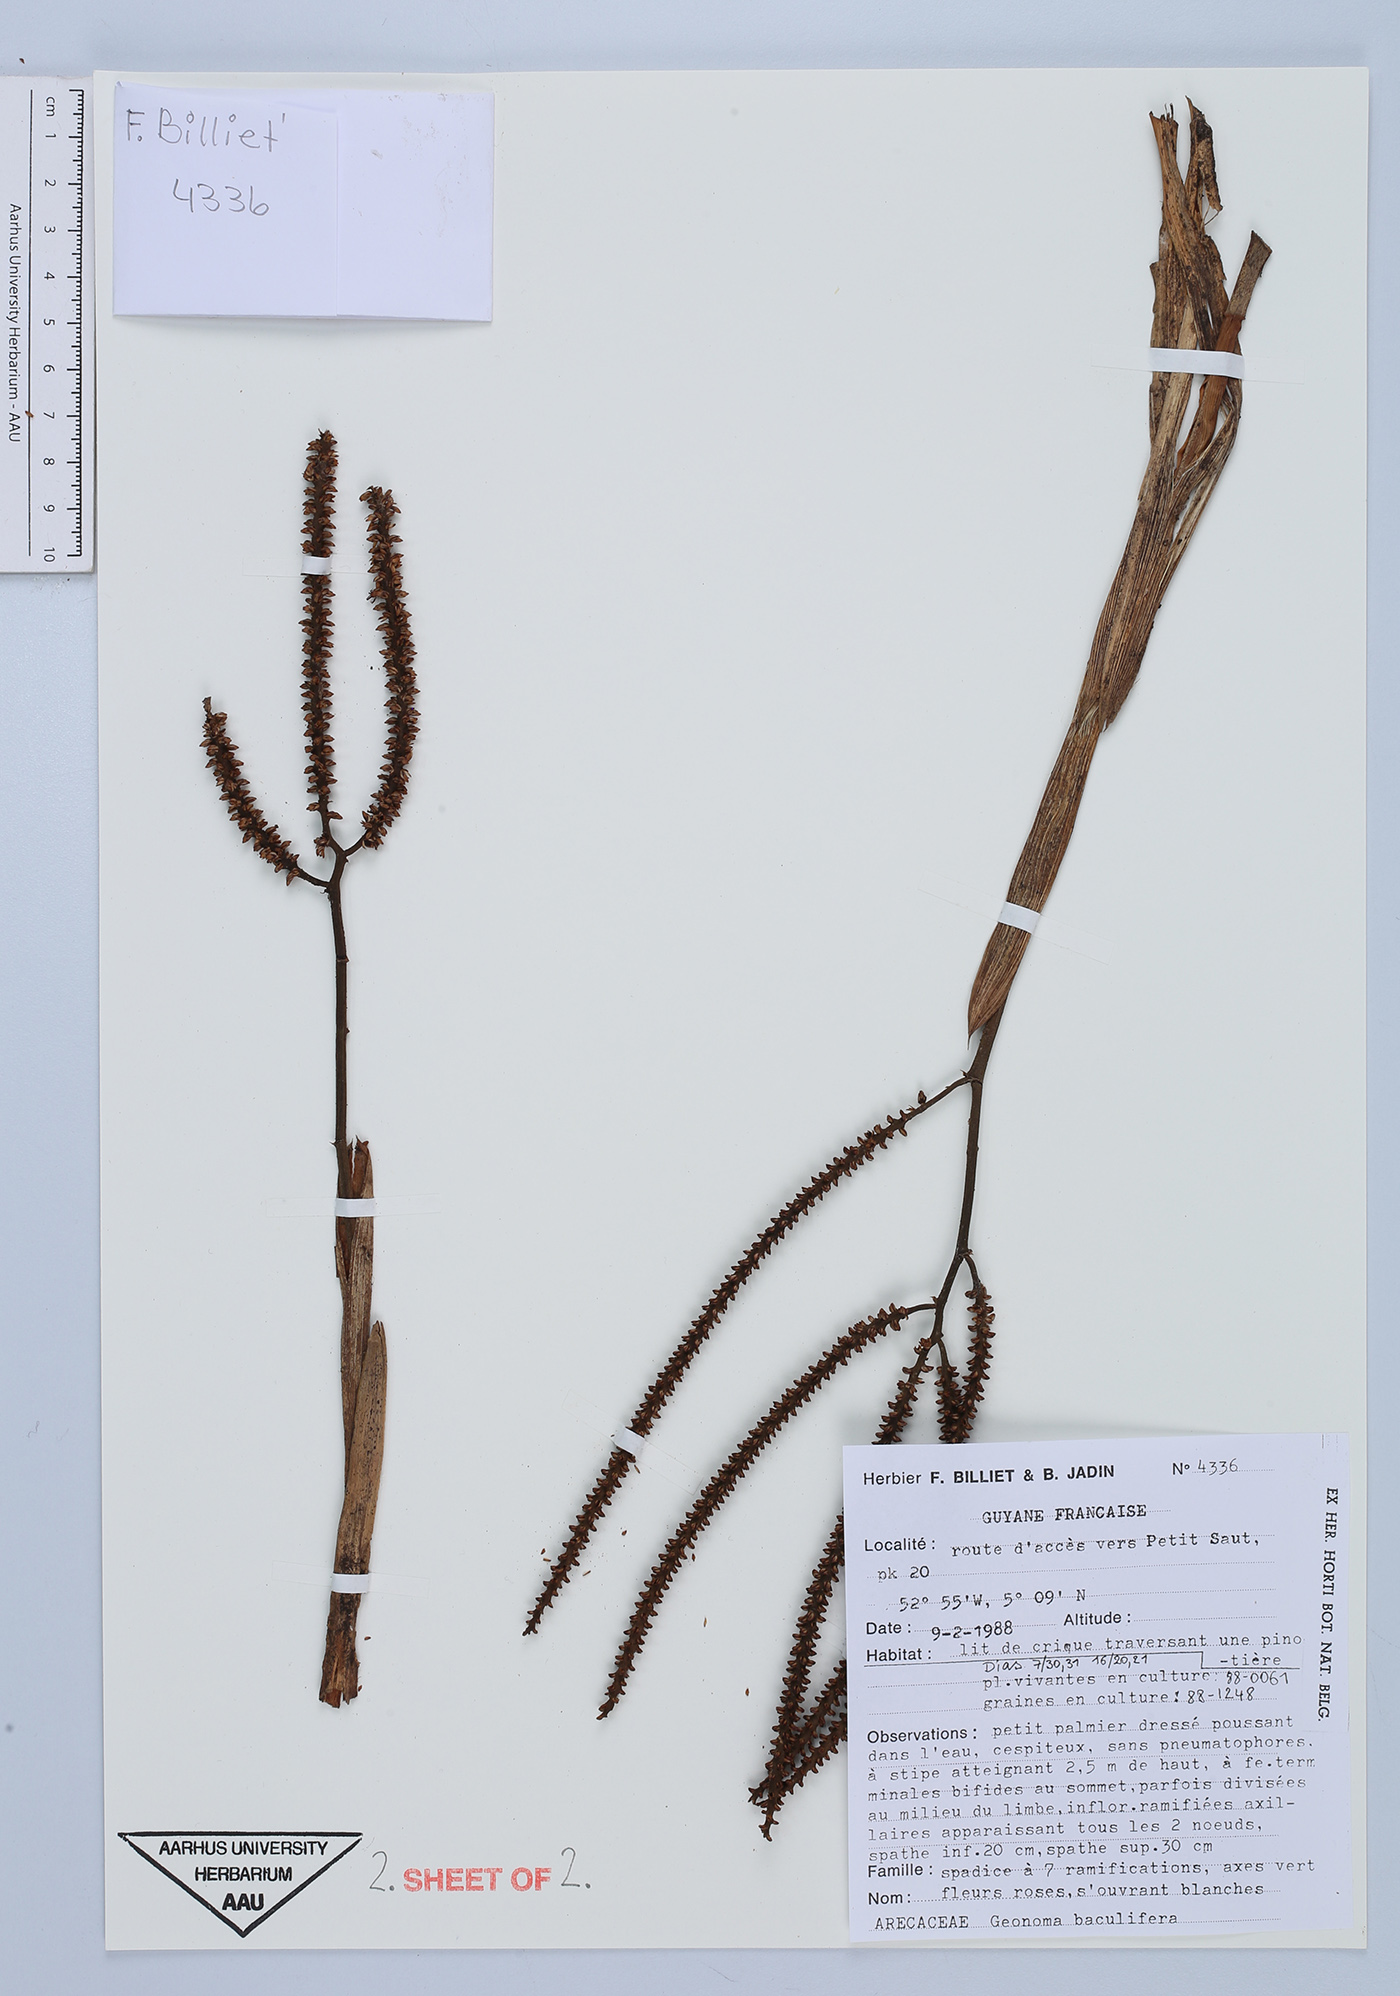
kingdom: Plantae
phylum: Tracheophyta
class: Liliopsida
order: Arecales
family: Arecaceae
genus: Geonoma
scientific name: Geonoma baculifera
